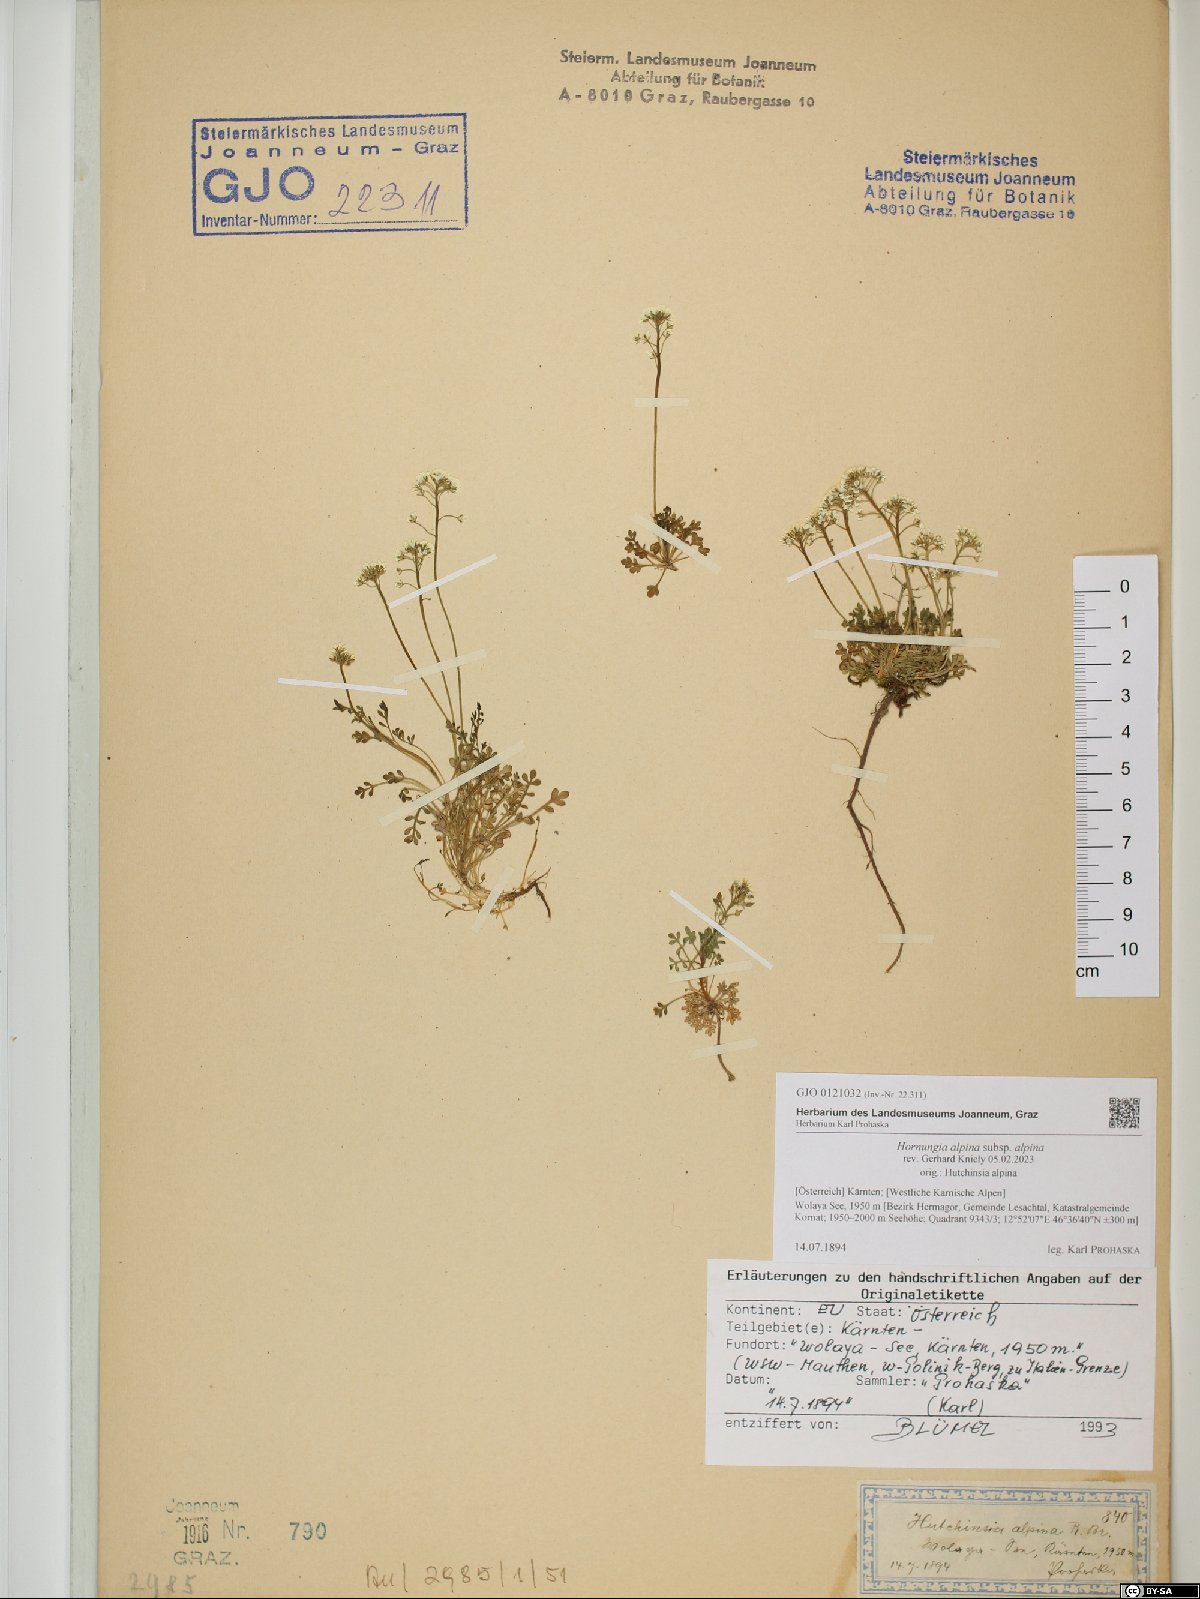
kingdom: Plantae
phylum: Tracheophyta
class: Magnoliopsida
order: Brassicales
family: Brassicaceae
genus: Hornungia
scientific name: Hornungia alpina
